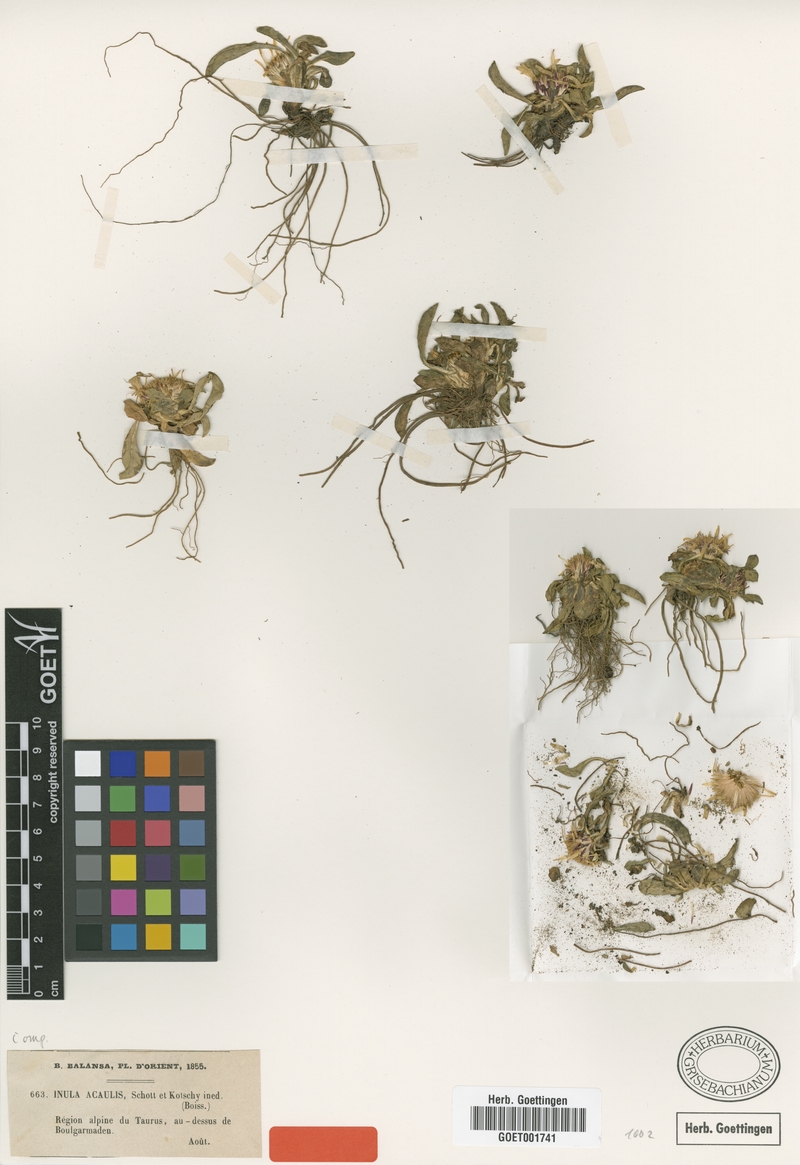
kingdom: Plantae
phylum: Tracheophyta
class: Magnoliopsida
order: Asterales
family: Asteraceae
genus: Inula
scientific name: Inula acaulis
